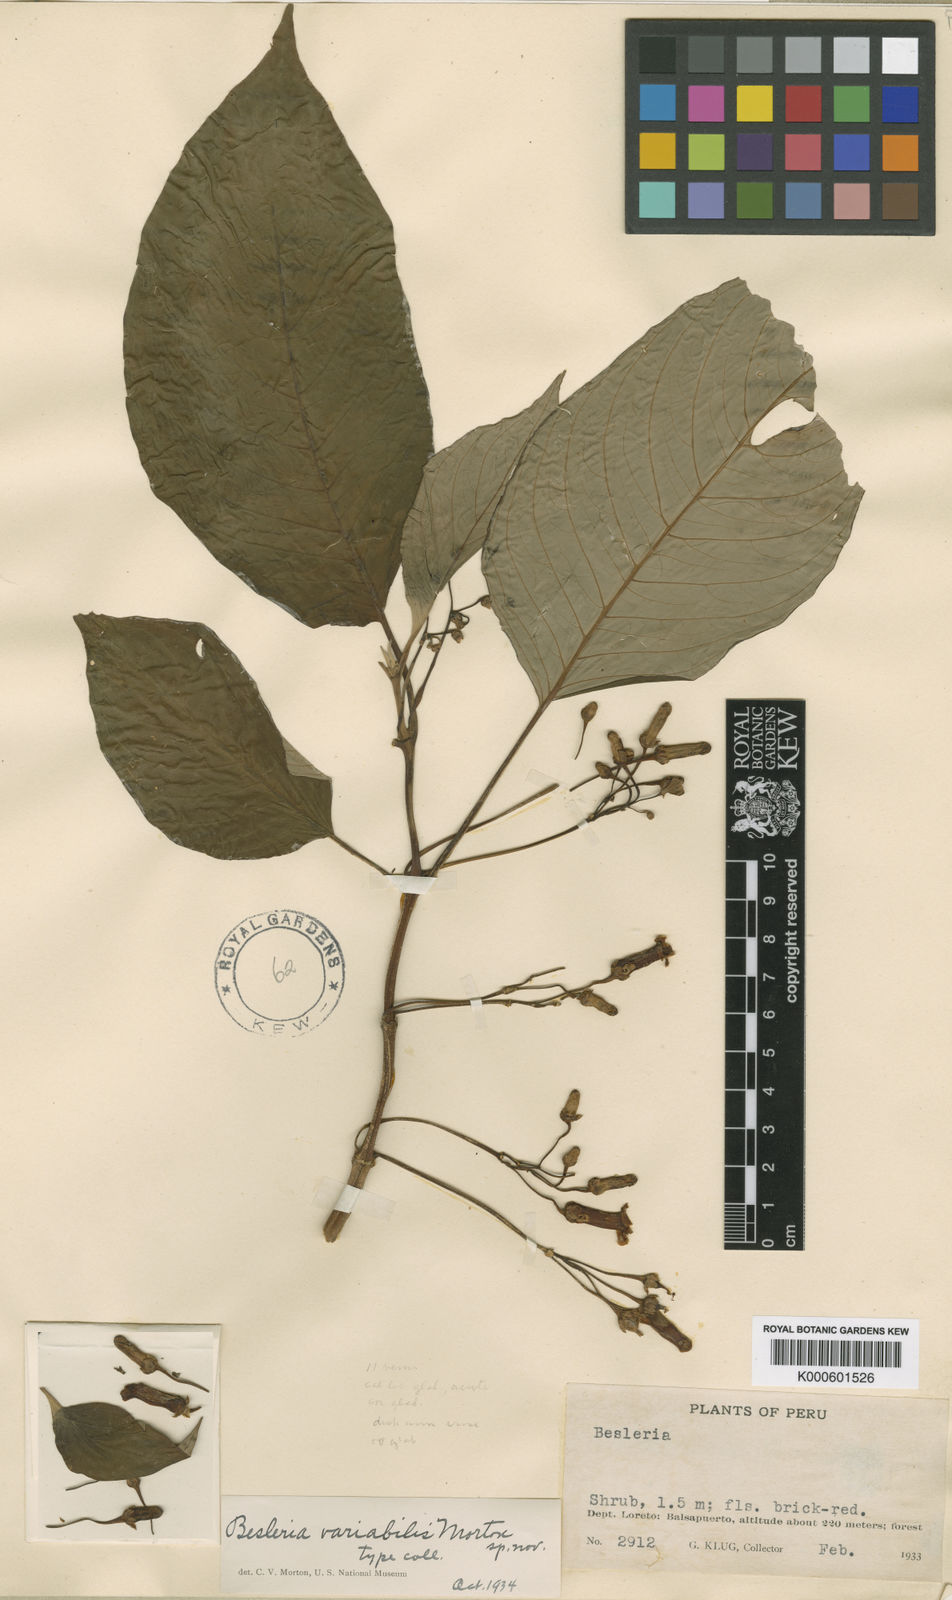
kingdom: Plantae
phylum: Tracheophyta
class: Magnoliopsida
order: Lamiales
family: Gesneriaceae
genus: Besleria
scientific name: Besleria variabilis
